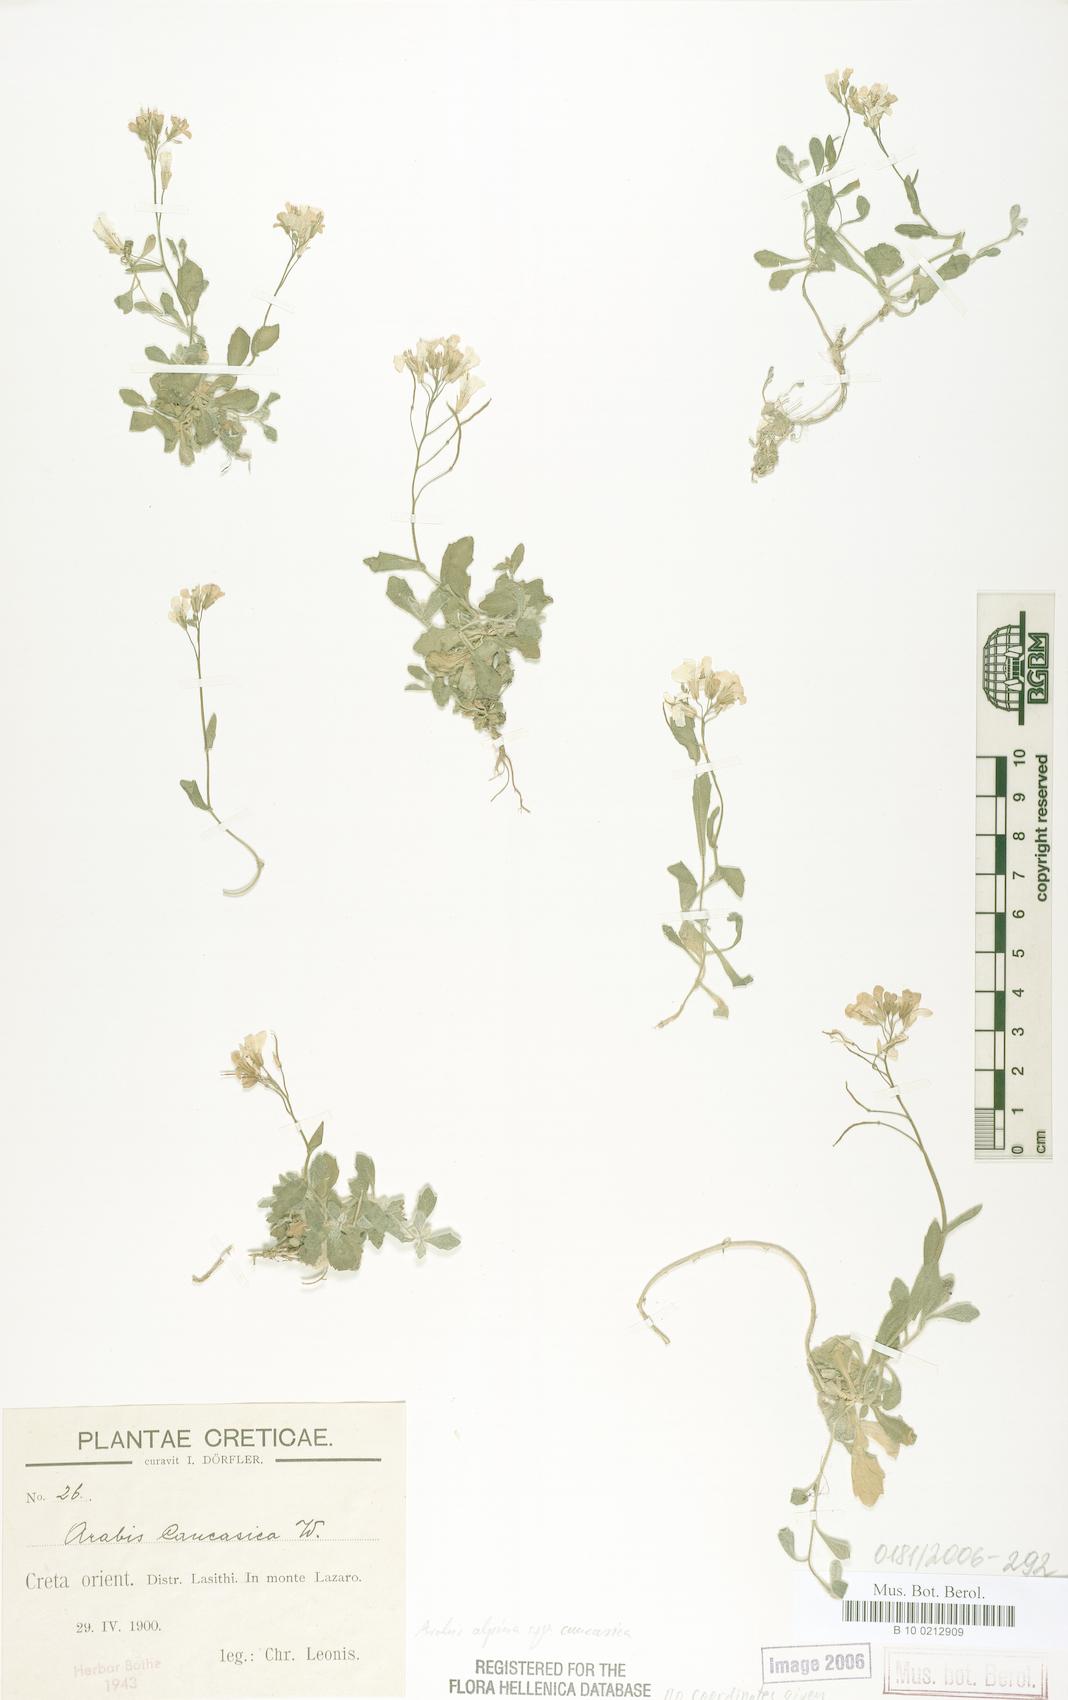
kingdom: Plantae
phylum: Tracheophyta
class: Magnoliopsida
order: Brassicales
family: Brassicaceae
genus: Arabis
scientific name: Arabis caucasica
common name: Gray rockcress
